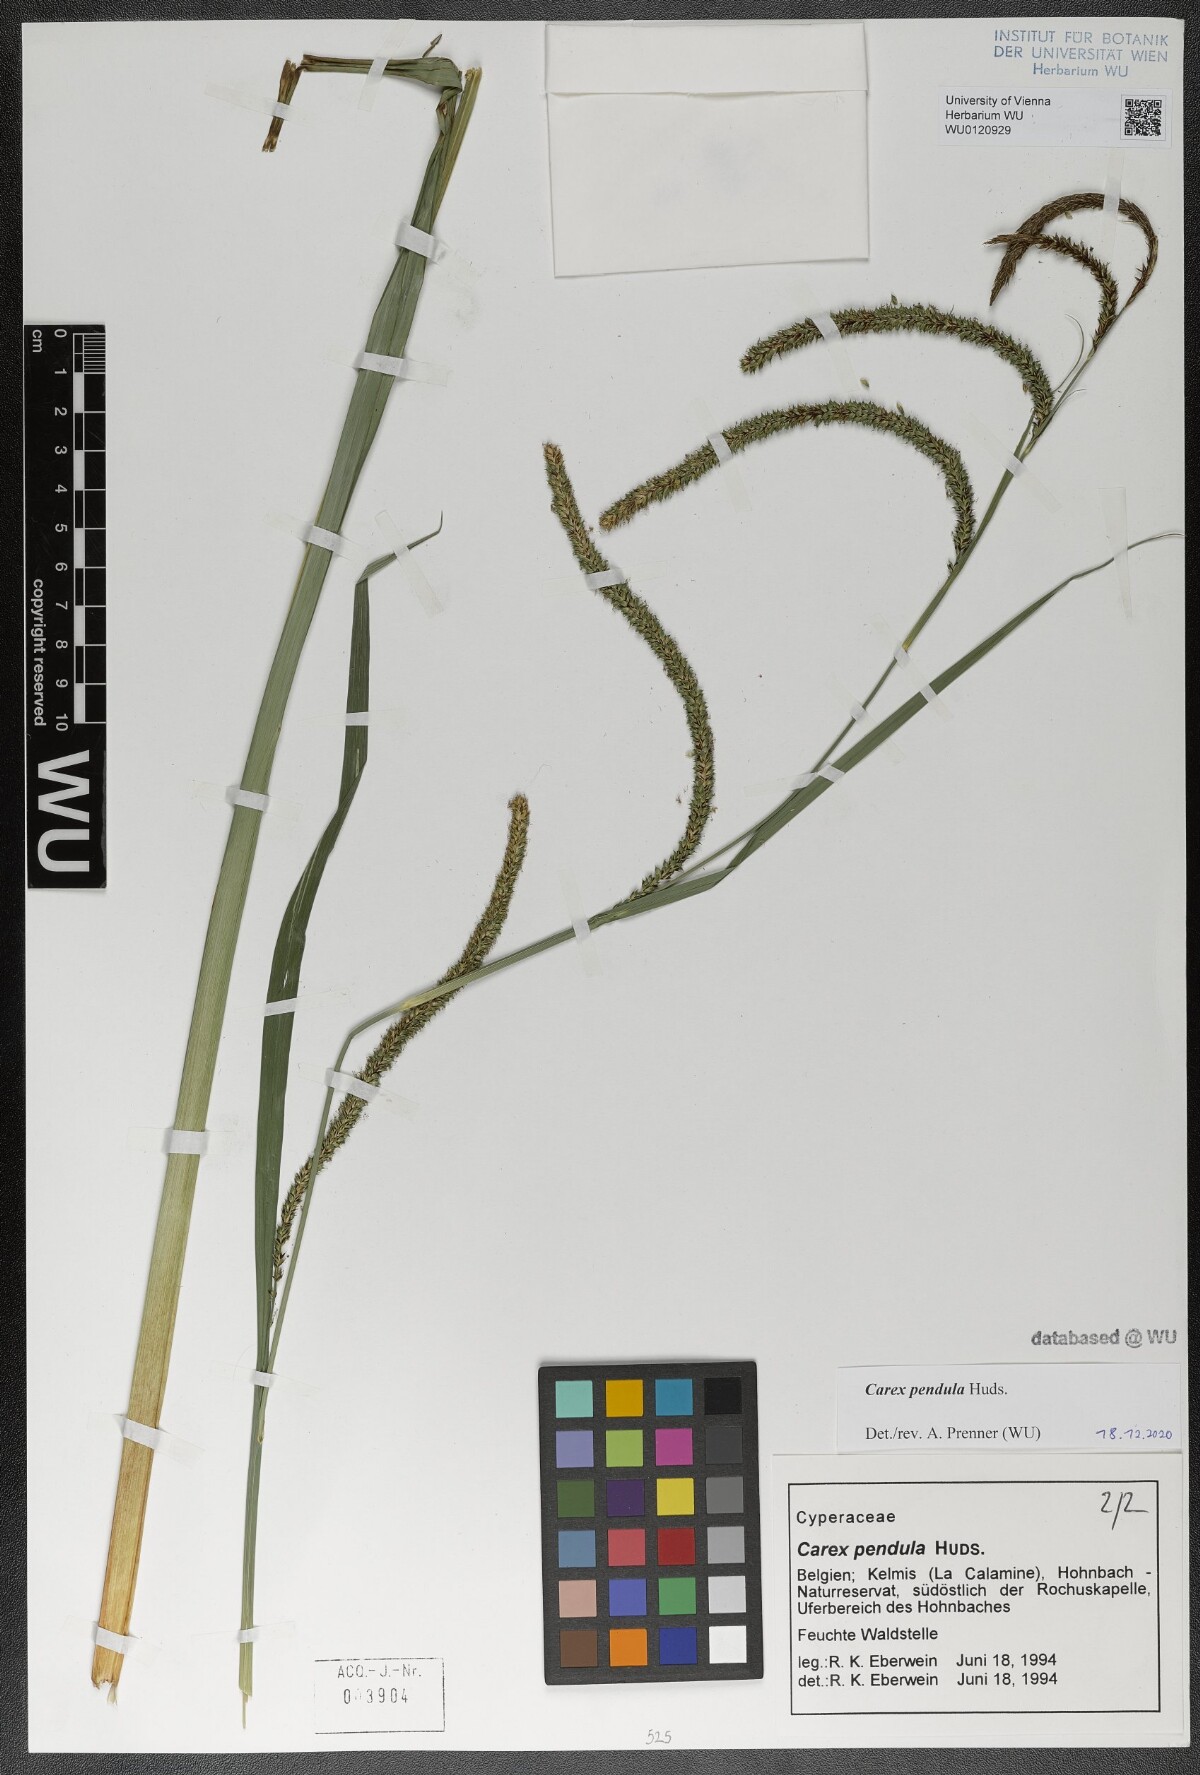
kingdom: Plantae
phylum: Tracheophyta
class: Liliopsida
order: Poales
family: Cyperaceae
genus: Carex
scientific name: Carex pendula
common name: Pendulous sedge
